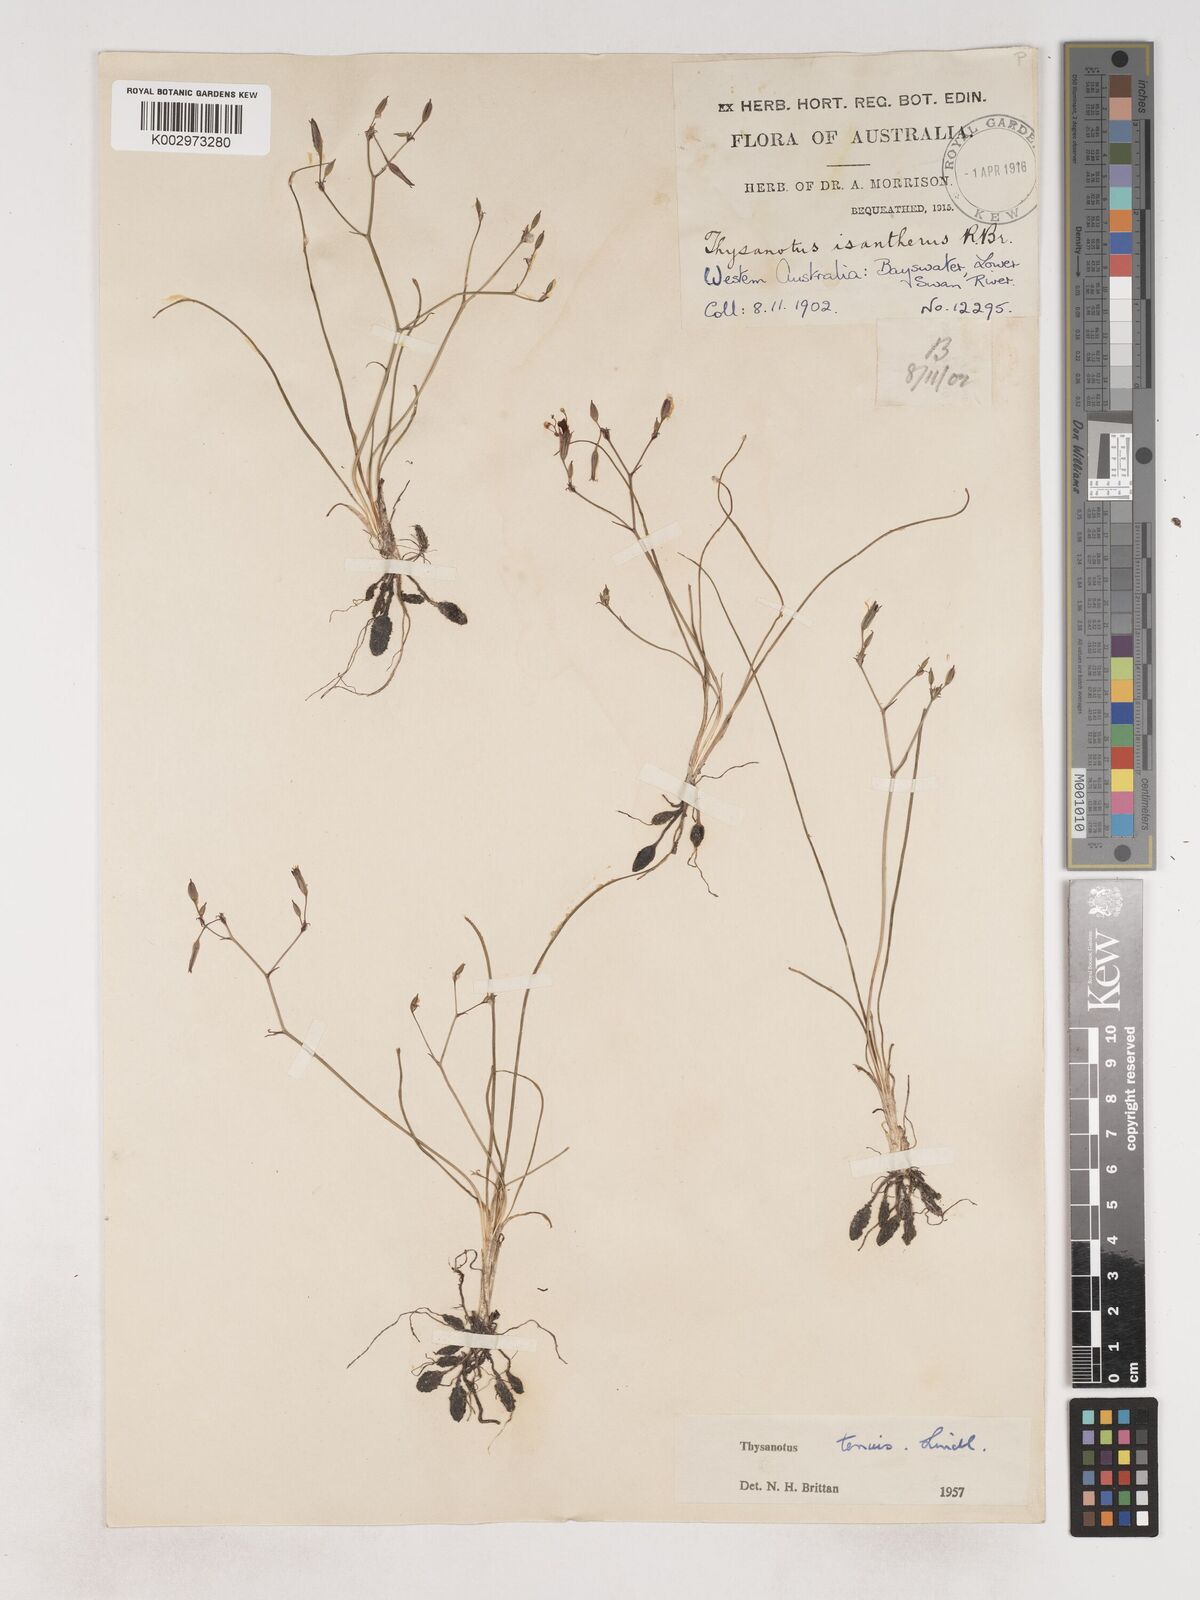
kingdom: Plantae
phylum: Tracheophyta
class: Liliopsida
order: Asparagales
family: Asparagaceae
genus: Thysanotus
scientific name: Thysanotus tenuis
